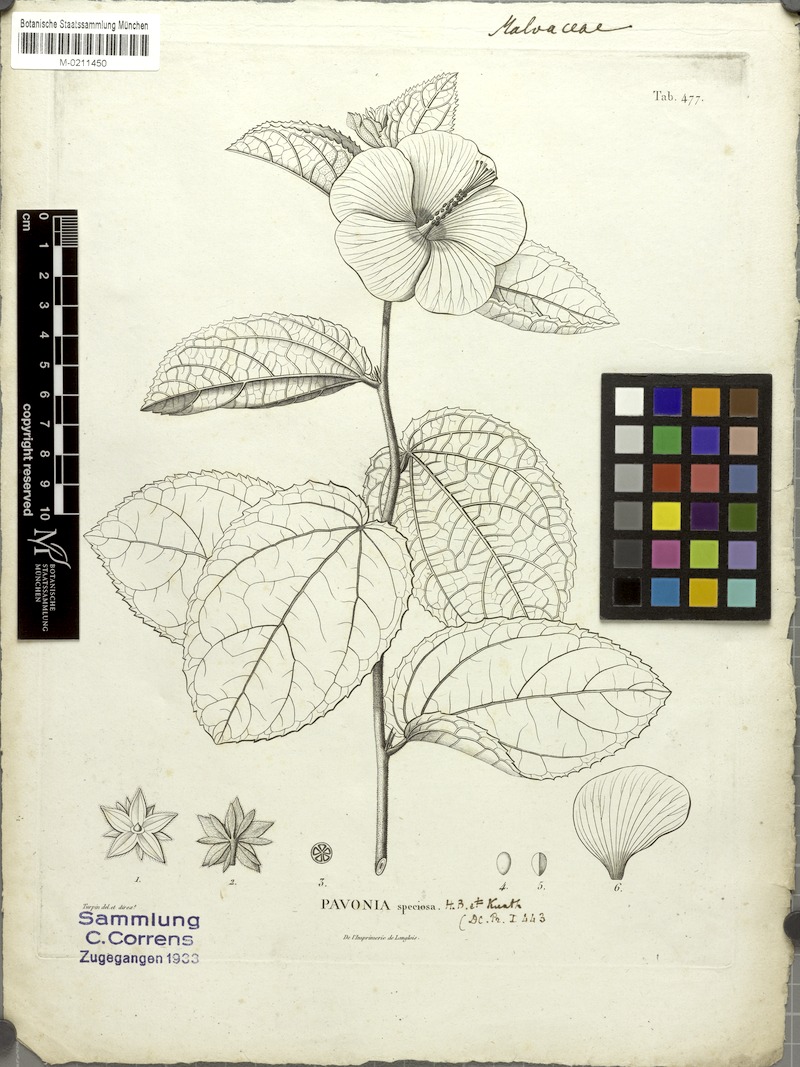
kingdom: Plantae
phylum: Tracheophyta
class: Magnoliopsida
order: Malvales
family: Malvaceae
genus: Peltaea
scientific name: Peltaea speciosa
